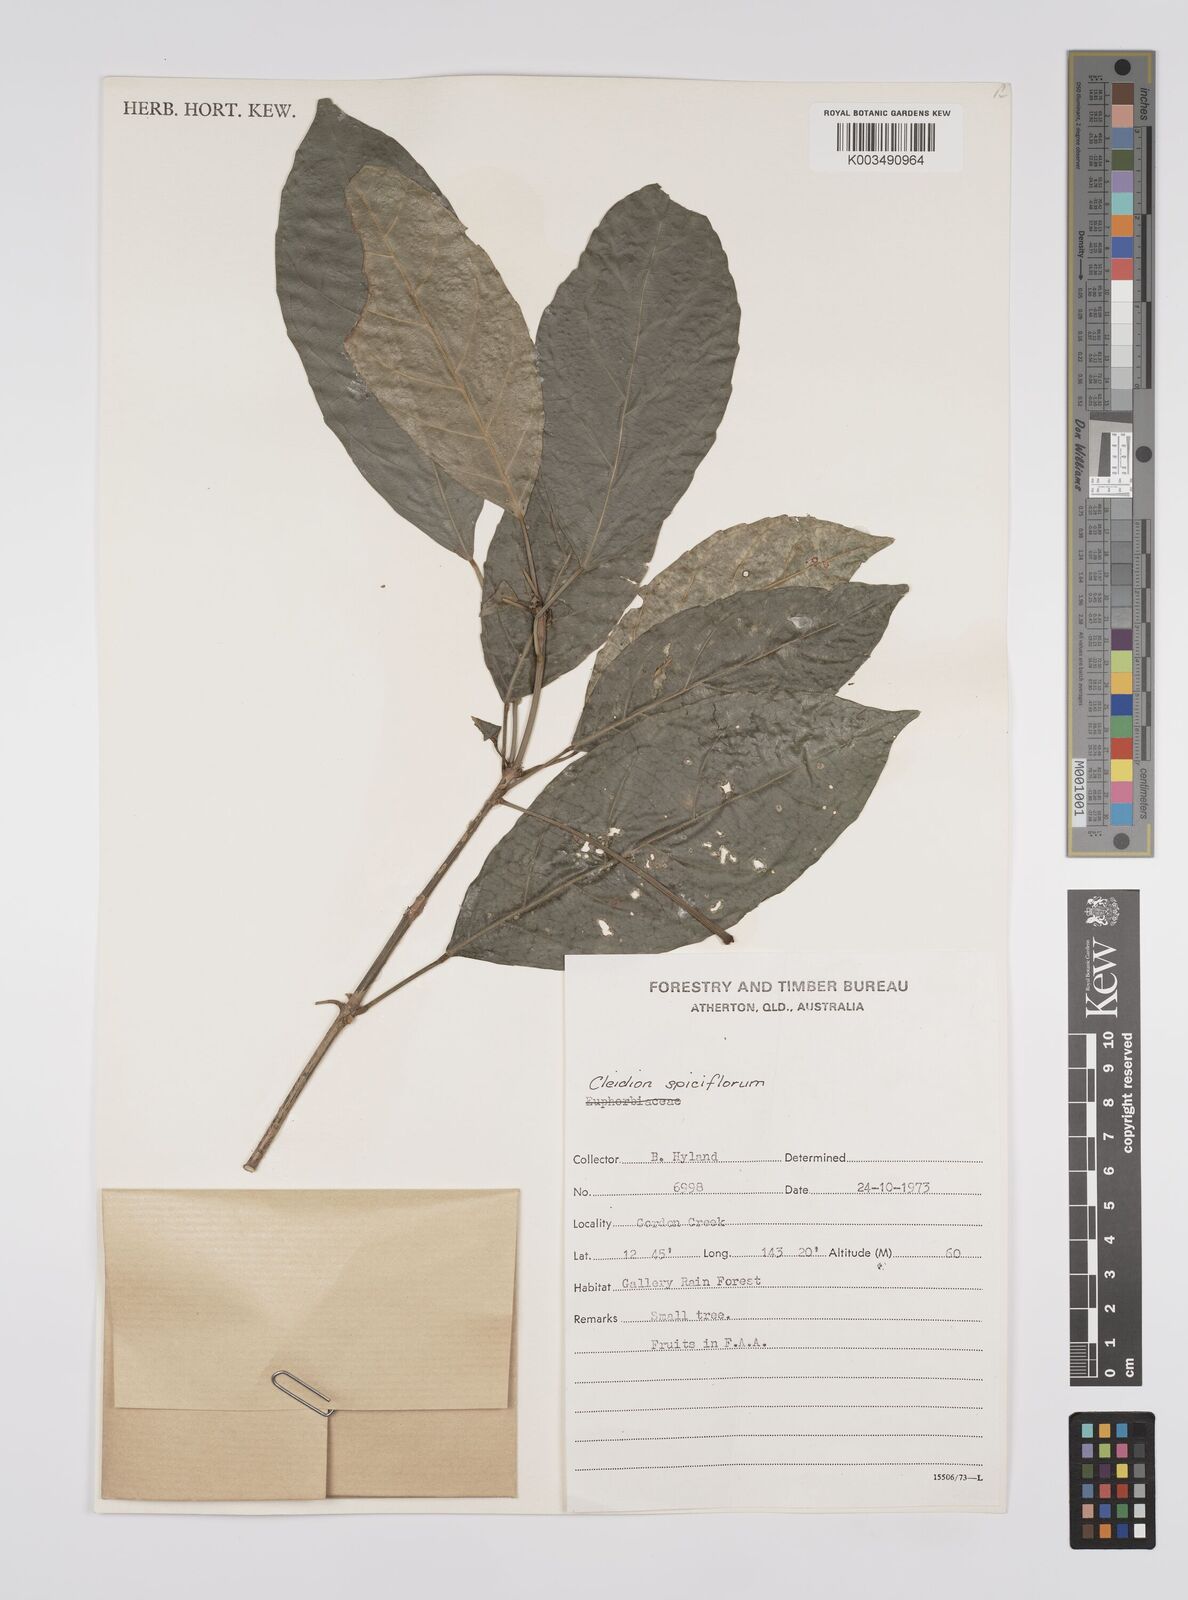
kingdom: Plantae
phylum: Tracheophyta
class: Magnoliopsida
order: Malpighiales
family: Euphorbiaceae
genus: Cleidion
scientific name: Cleidion javanicum
